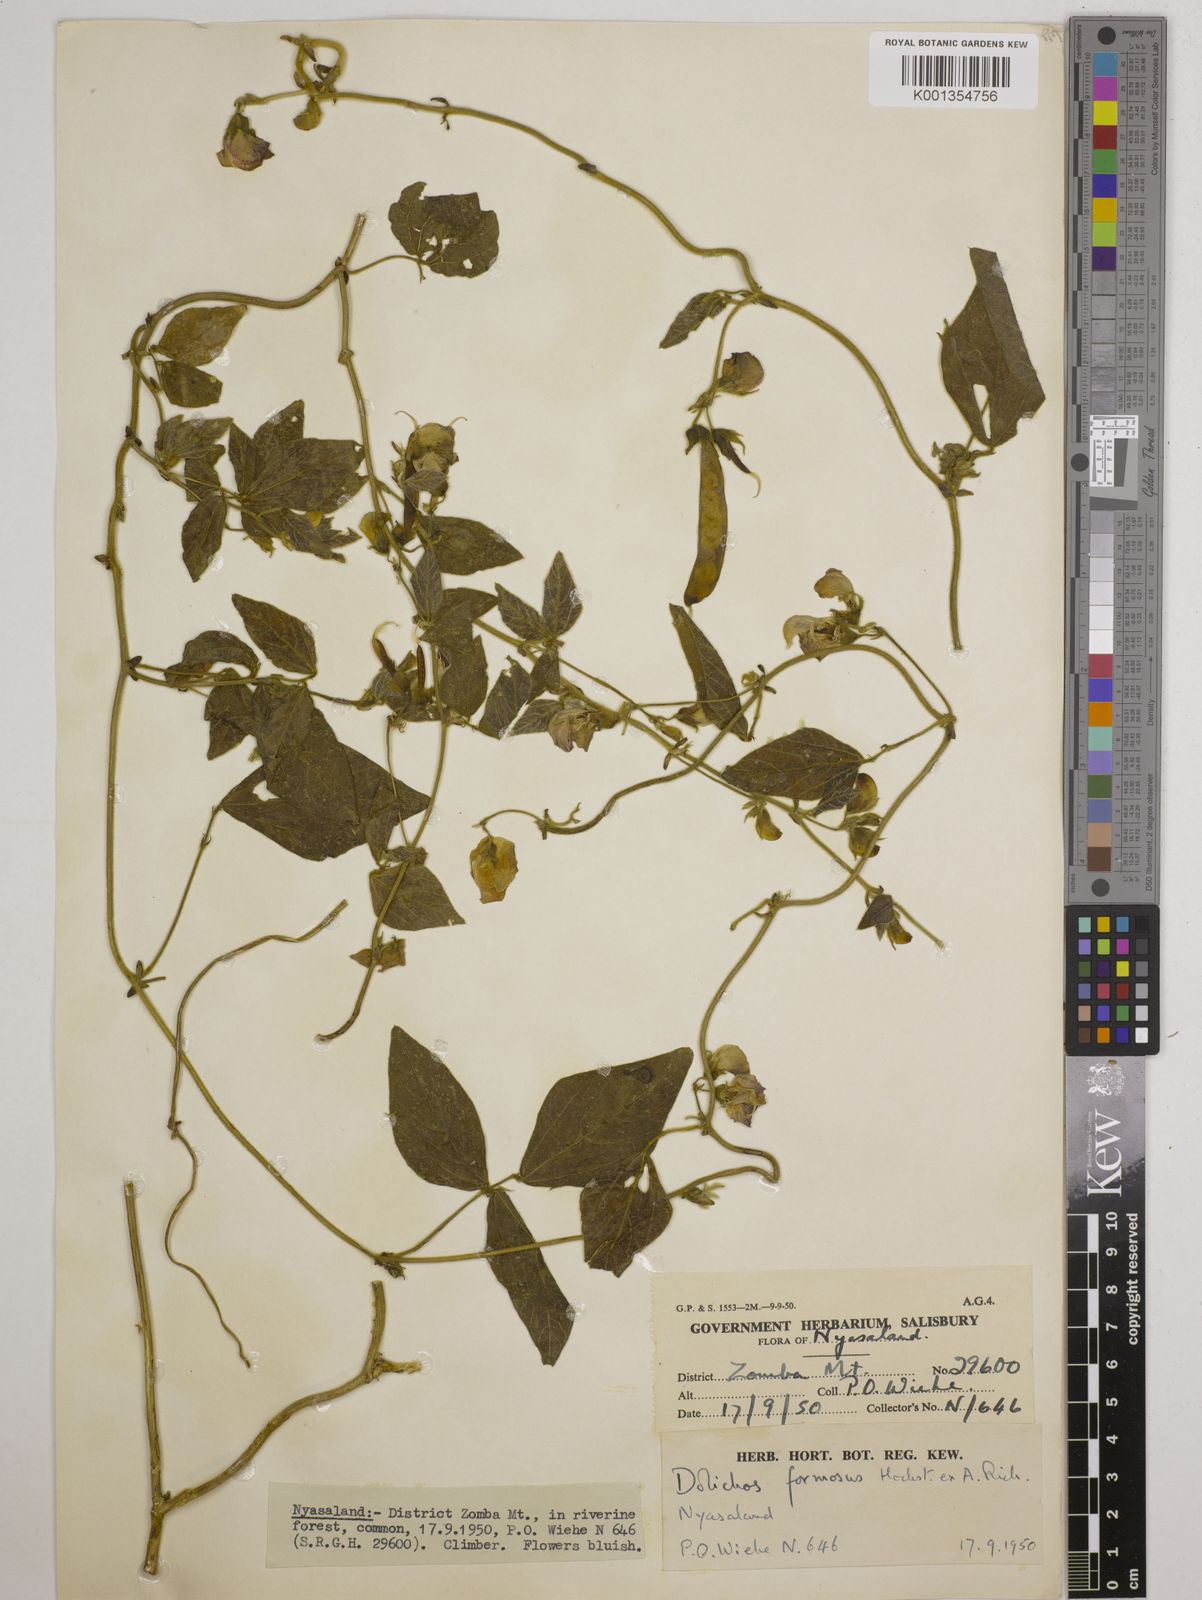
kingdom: Plantae
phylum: Tracheophyta
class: Magnoliopsida
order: Fabales
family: Fabaceae
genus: Dolichos
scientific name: Dolichos
